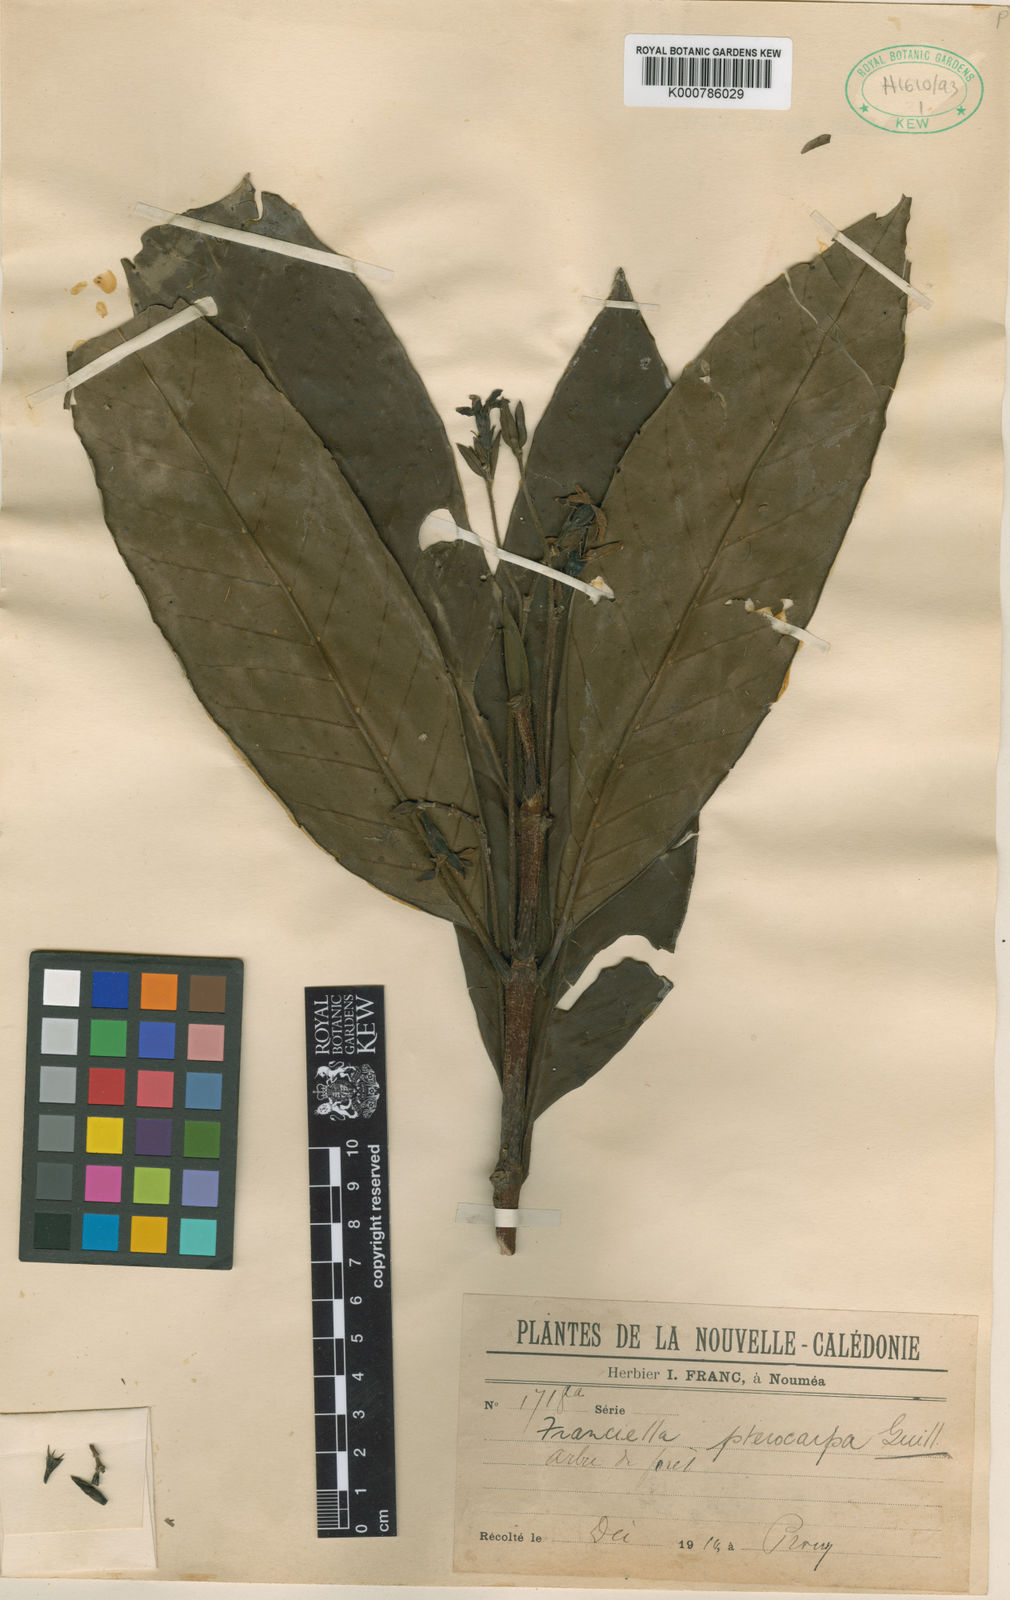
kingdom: Plantae
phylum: Tracheophyta
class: Magnoliopsida
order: Gentianales
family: Rubiaceae
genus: Atractocarpus
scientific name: Atractocarpus pterocarpon
